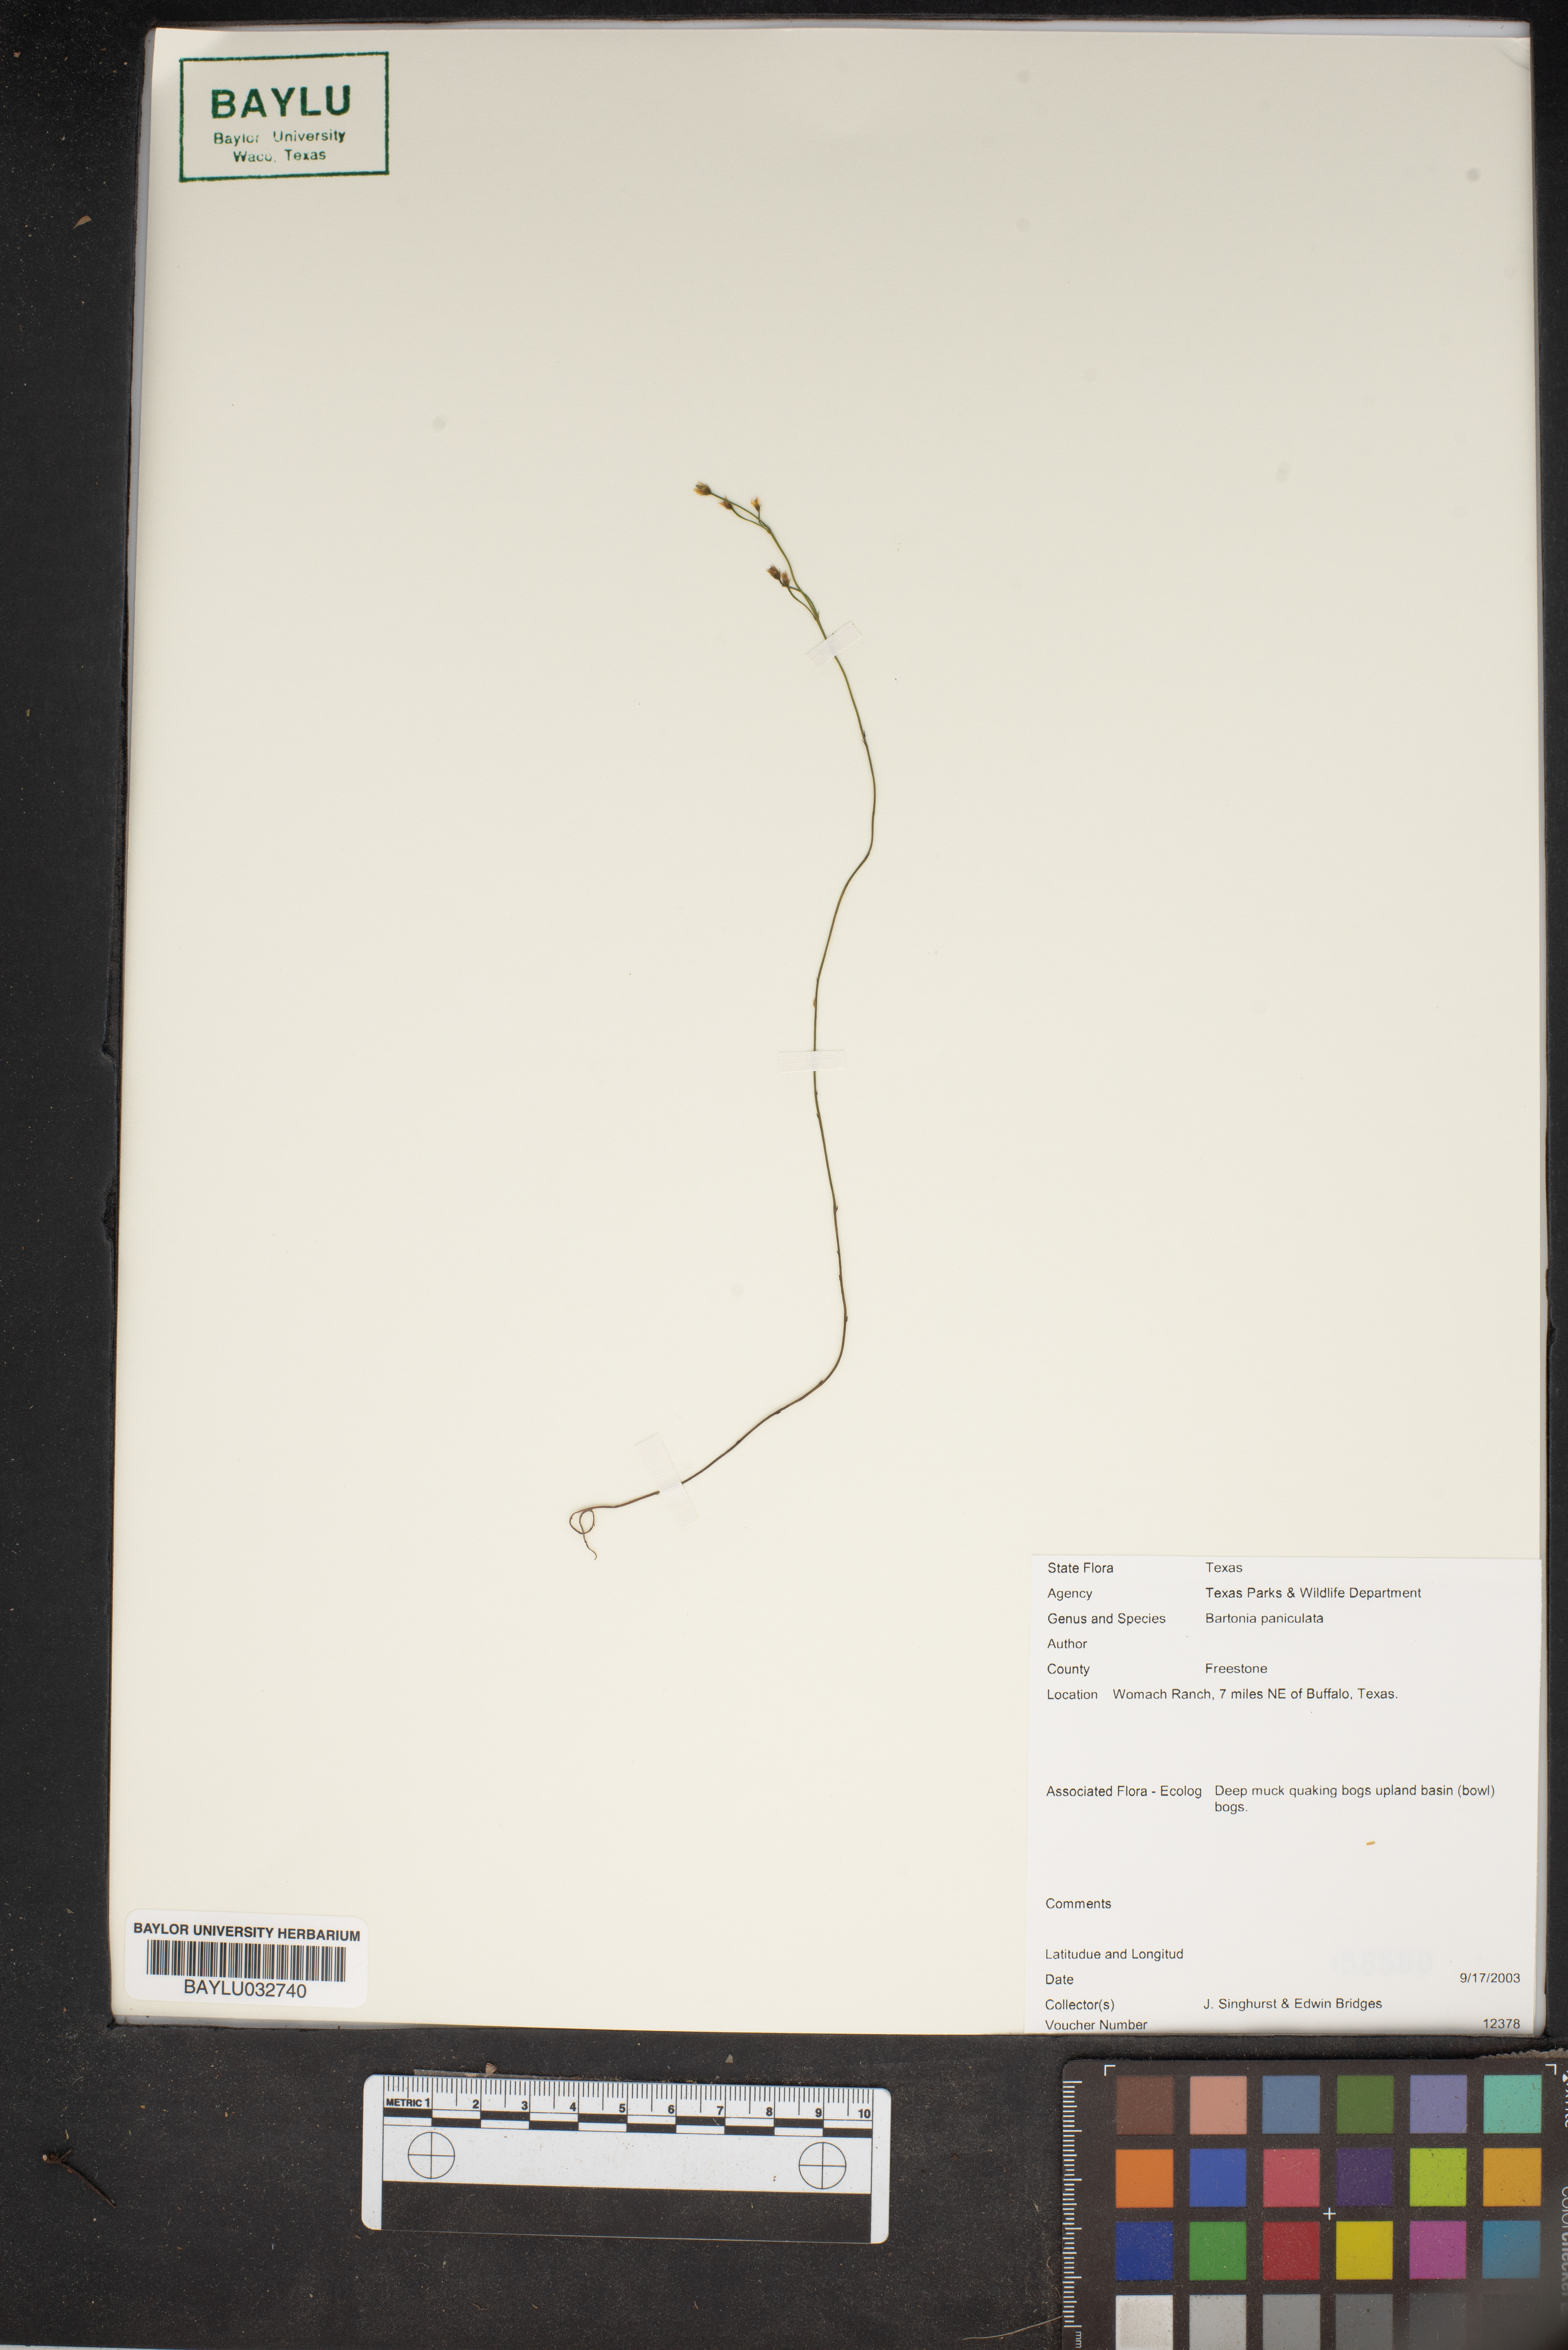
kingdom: Plantae
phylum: Tracheophyta
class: Magnoliopsida
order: Gentianales
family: Gentianaceae
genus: Bartonia
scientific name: Bartonia paniculata
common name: Branched bartonia
